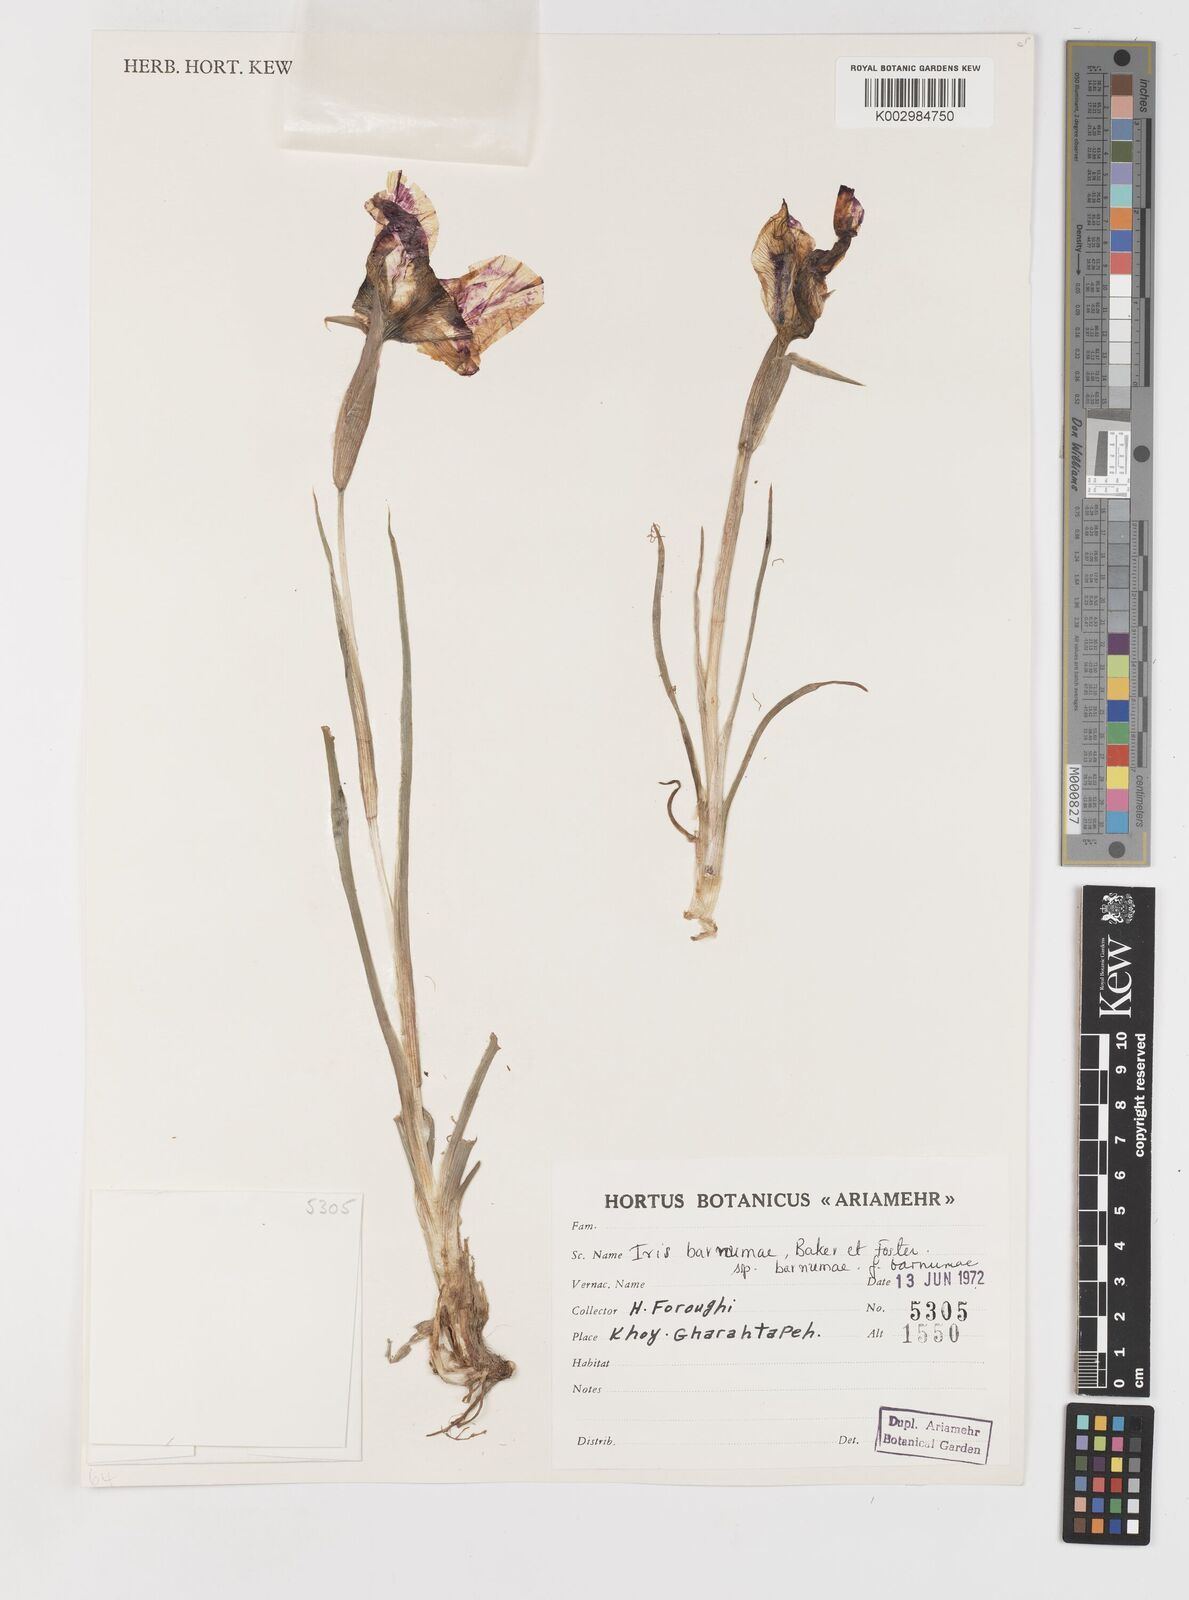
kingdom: Plantae
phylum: Tracheophyta
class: Liliopsida
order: Asparagales
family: Iridaceae
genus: Iris
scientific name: Iris barnumiae
